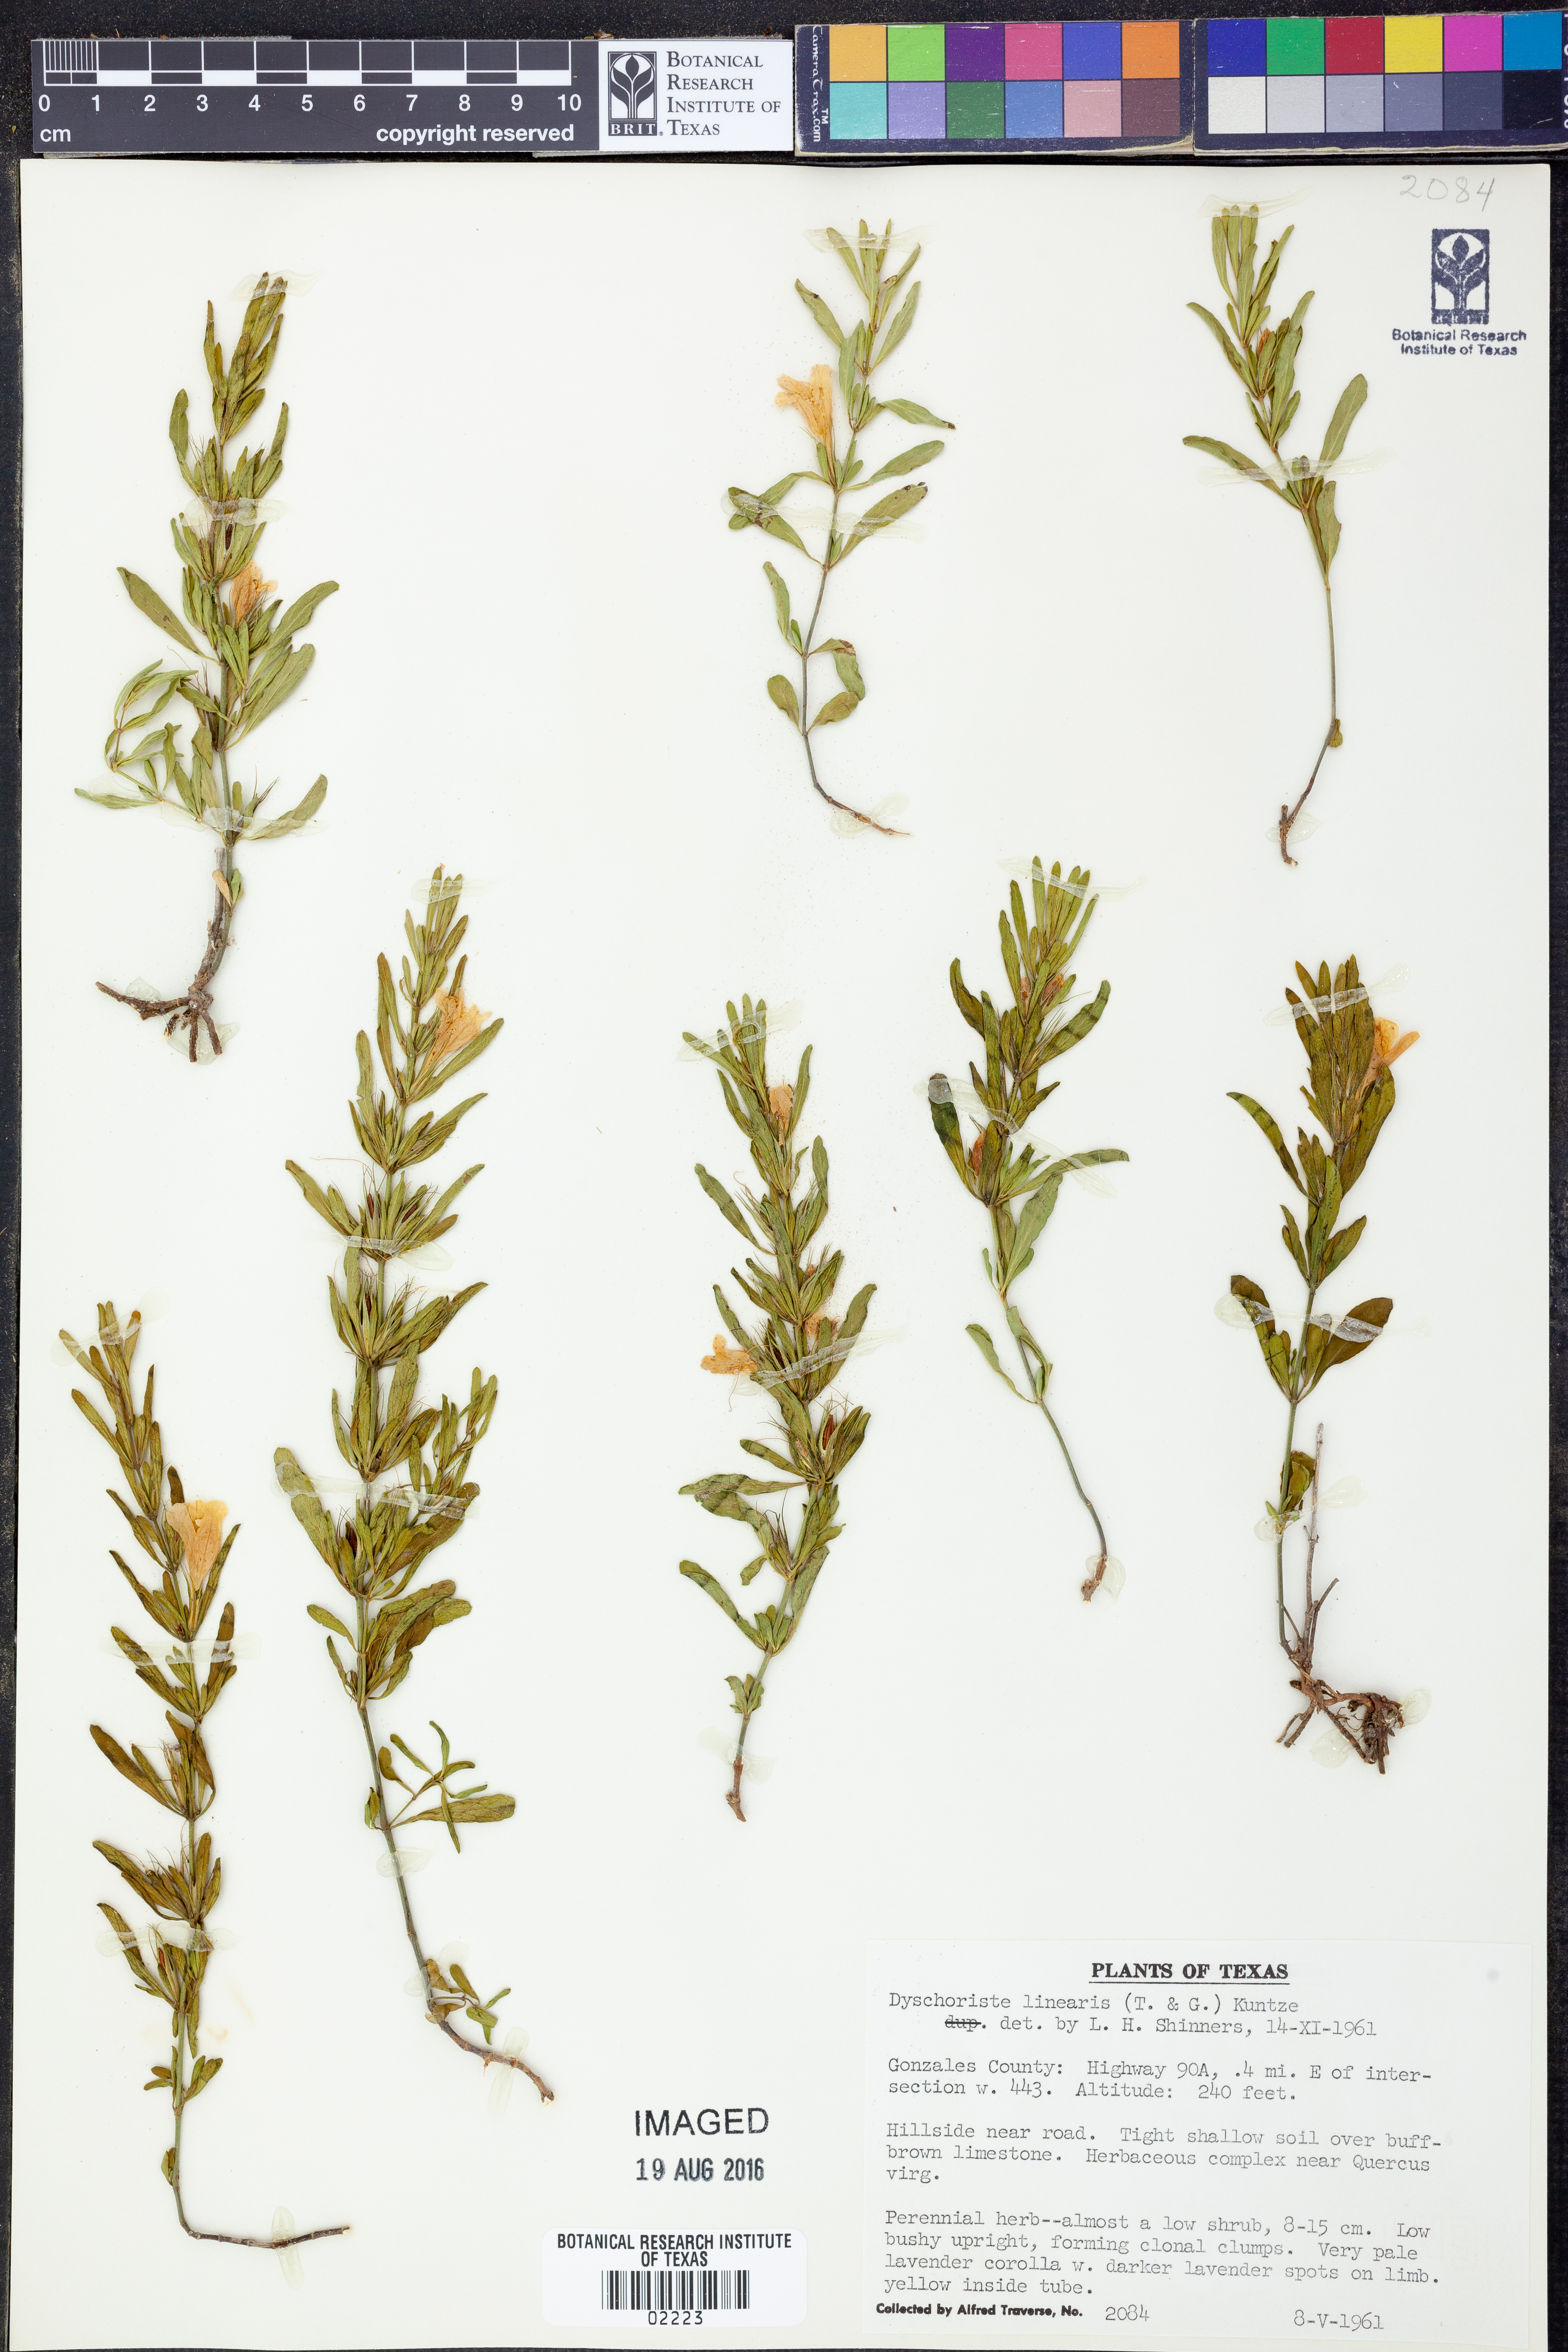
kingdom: Plantae
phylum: Tracheophyta
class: Magnoliopsida
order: Lamiales
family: Acanthaceae
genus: Dyschoriste
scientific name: Dyschoriste linearis
